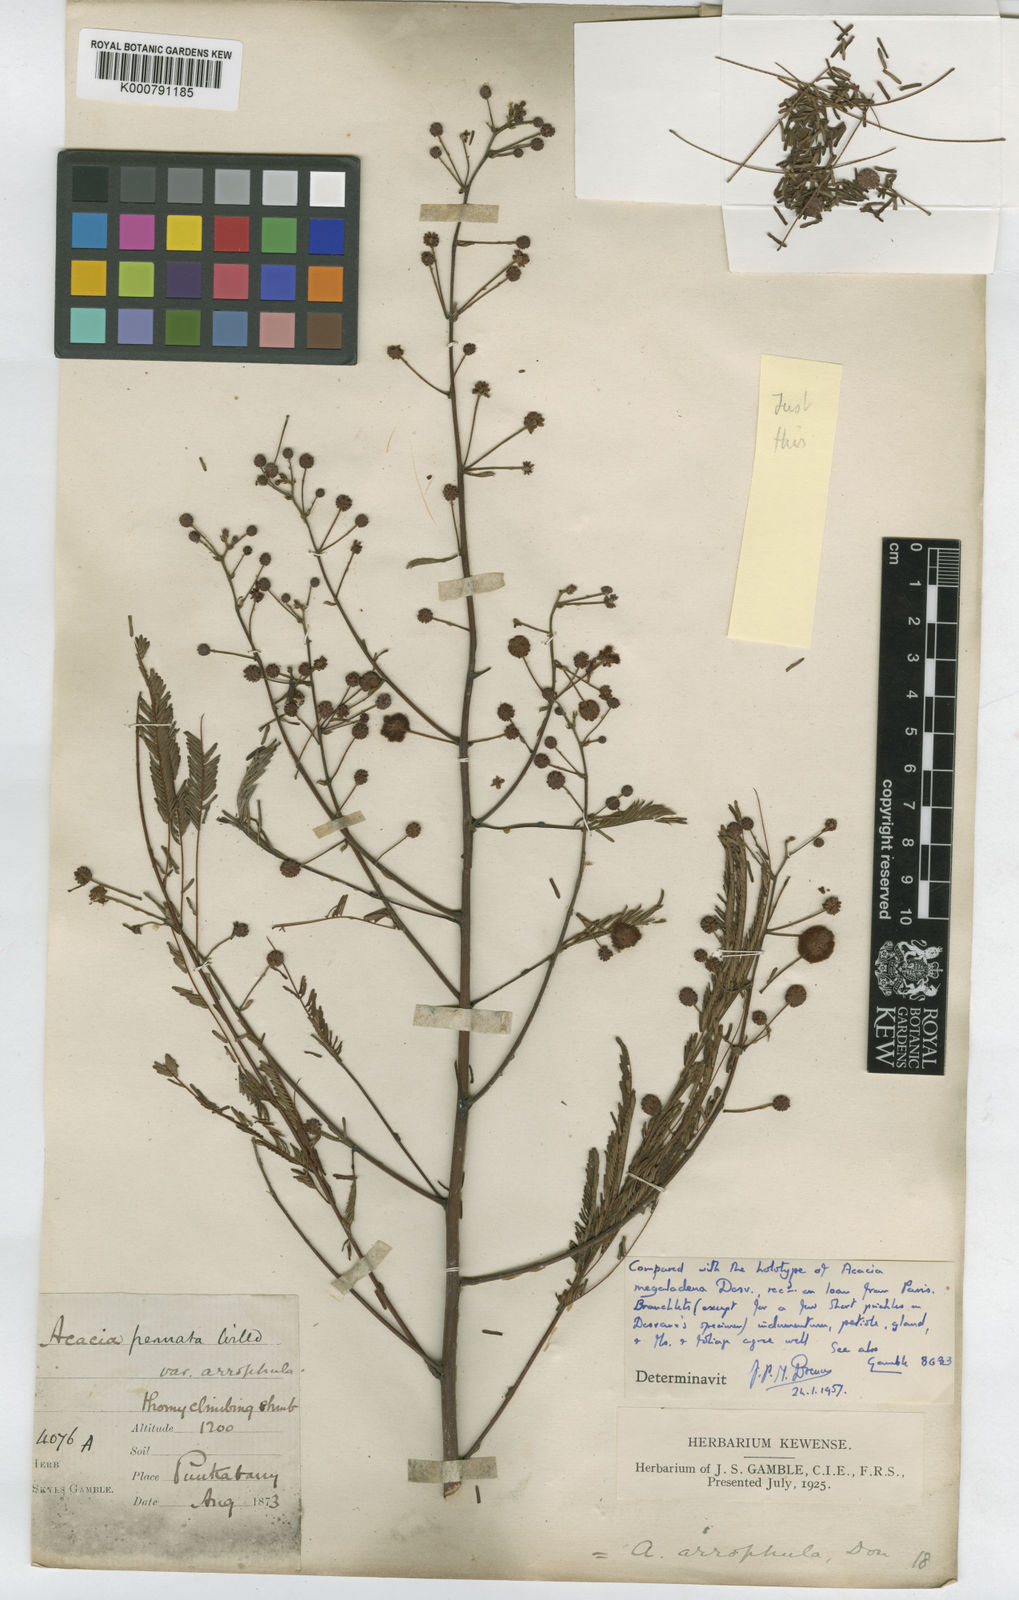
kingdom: Plantae
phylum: Tracheophyta
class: Magnoliopsida
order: Fabales
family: Fabaceae
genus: Senegalia
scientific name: Senegalia megaladena
